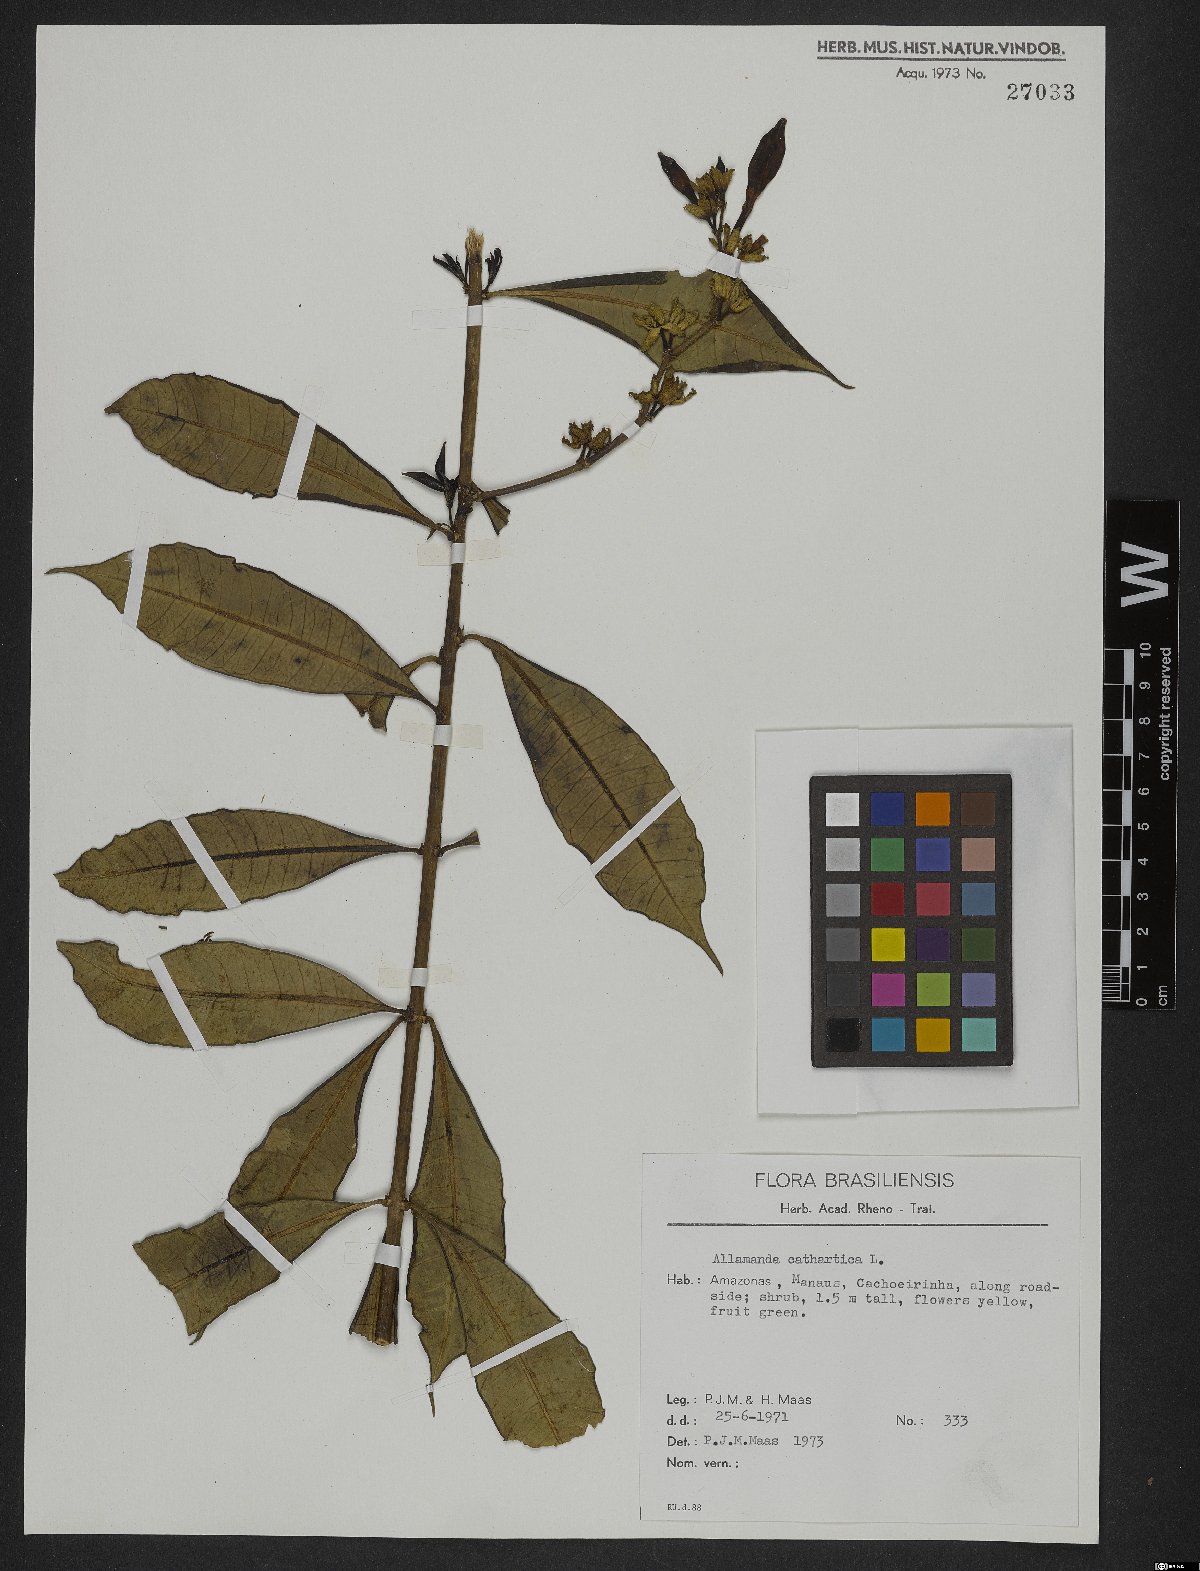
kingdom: Plantae
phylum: Tracheophyta
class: Magnoliopsida
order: Gentianales
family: Apocynaceae
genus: Allamanda
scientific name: Allamanda cathartica
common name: Golden trumpet
